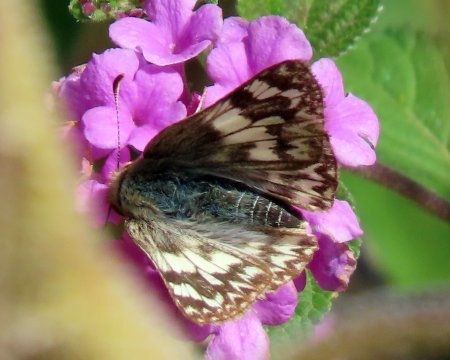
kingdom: Animalia
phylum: Arthropoda
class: Insecta
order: Lepidoptera
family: Hesperiidae
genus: Heliopetes
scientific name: Heliopetes ericetorum
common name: Northern White-Skipper
